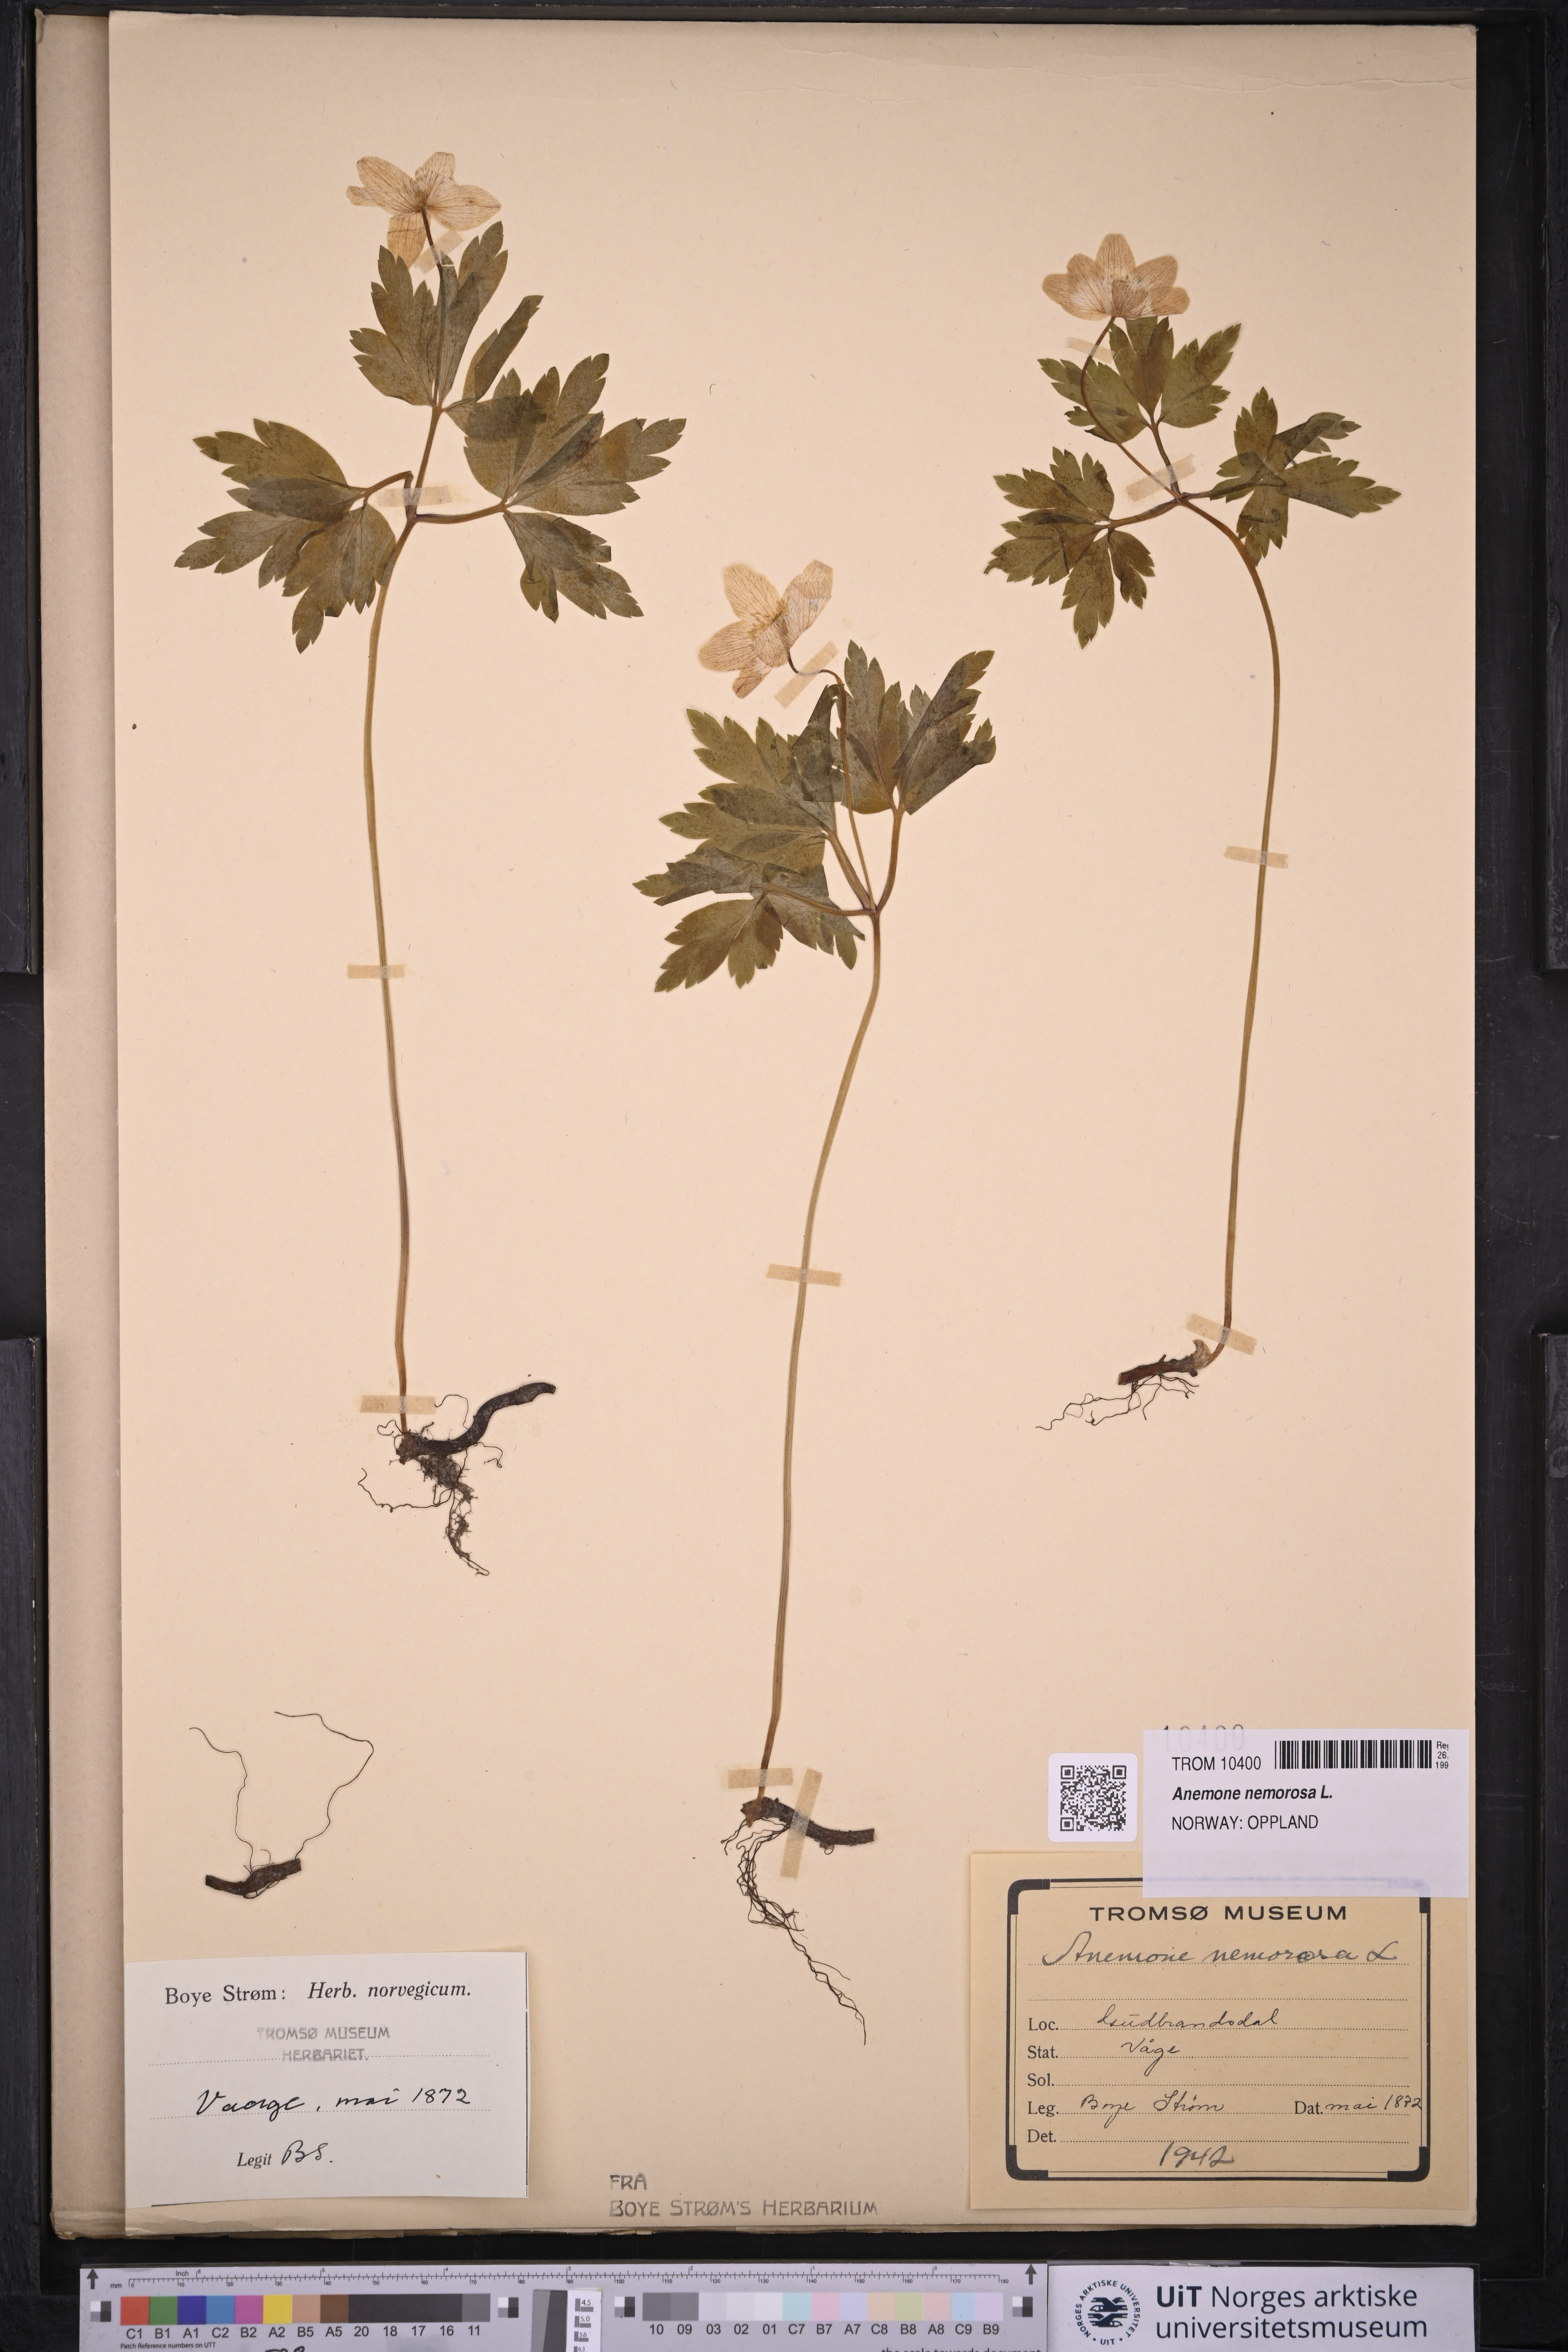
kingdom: Plantae
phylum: Tracheophyta
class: Magnoliopsida
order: Ranunculales
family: Ranunculaceae
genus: Anemone
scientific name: Anemone nemorosa
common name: Wood anemone
